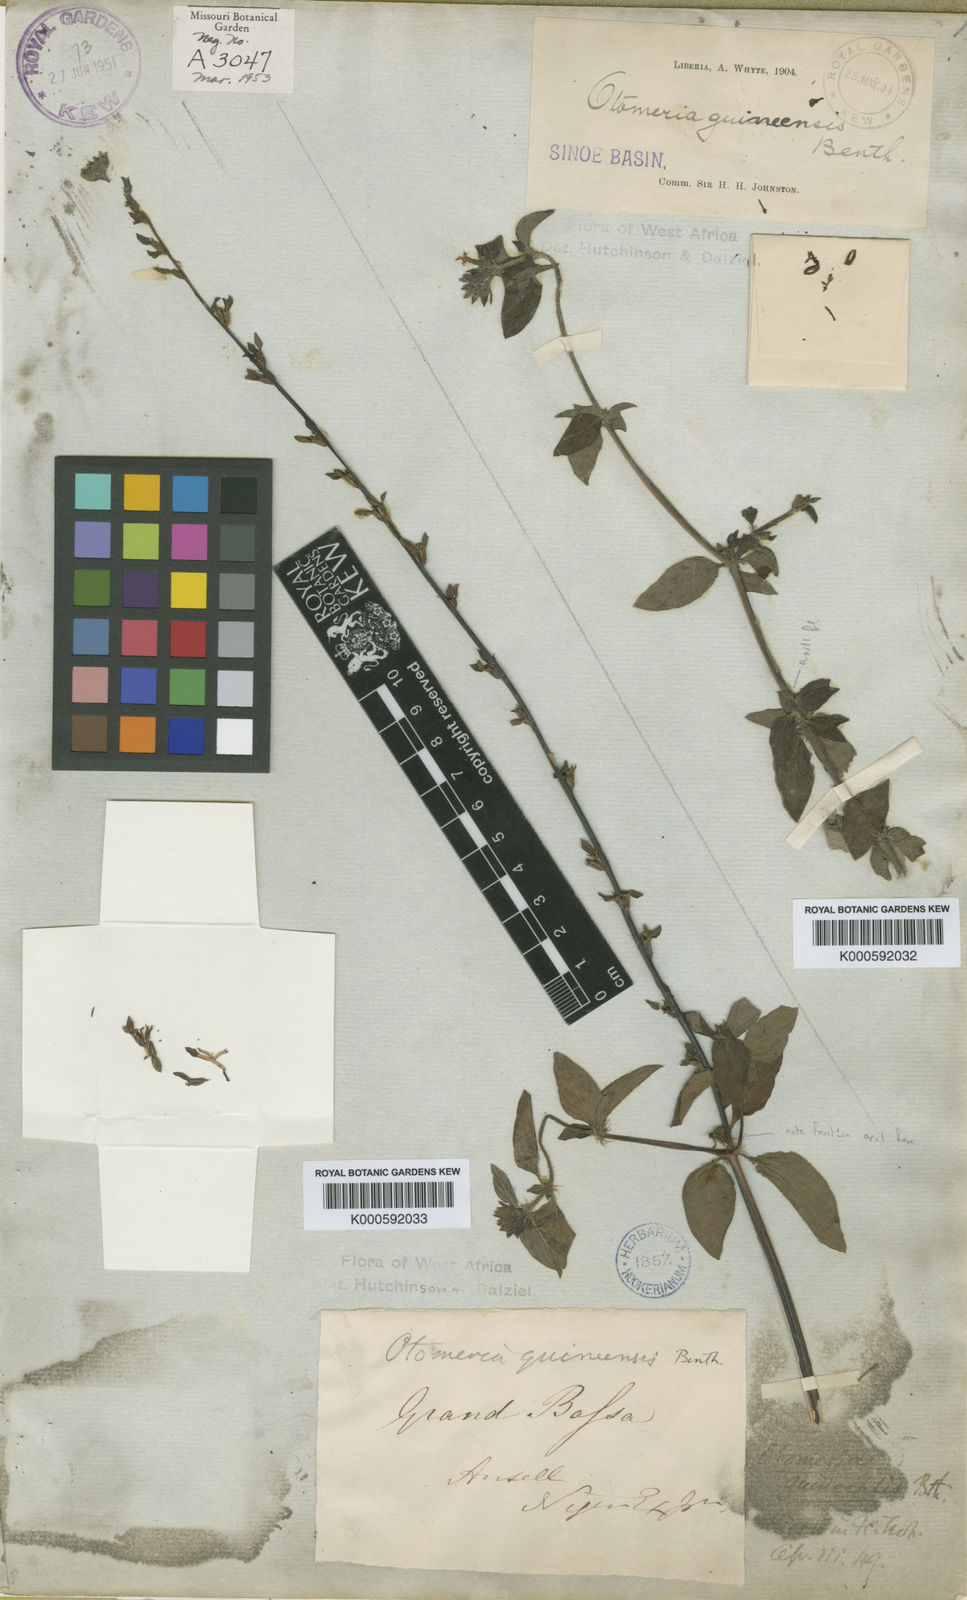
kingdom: Plantae
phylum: Tracheophyta
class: Magnoliopsida
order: Gentianales
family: Rubiaceae
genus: Otomeria
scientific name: Otomeria guineensis
